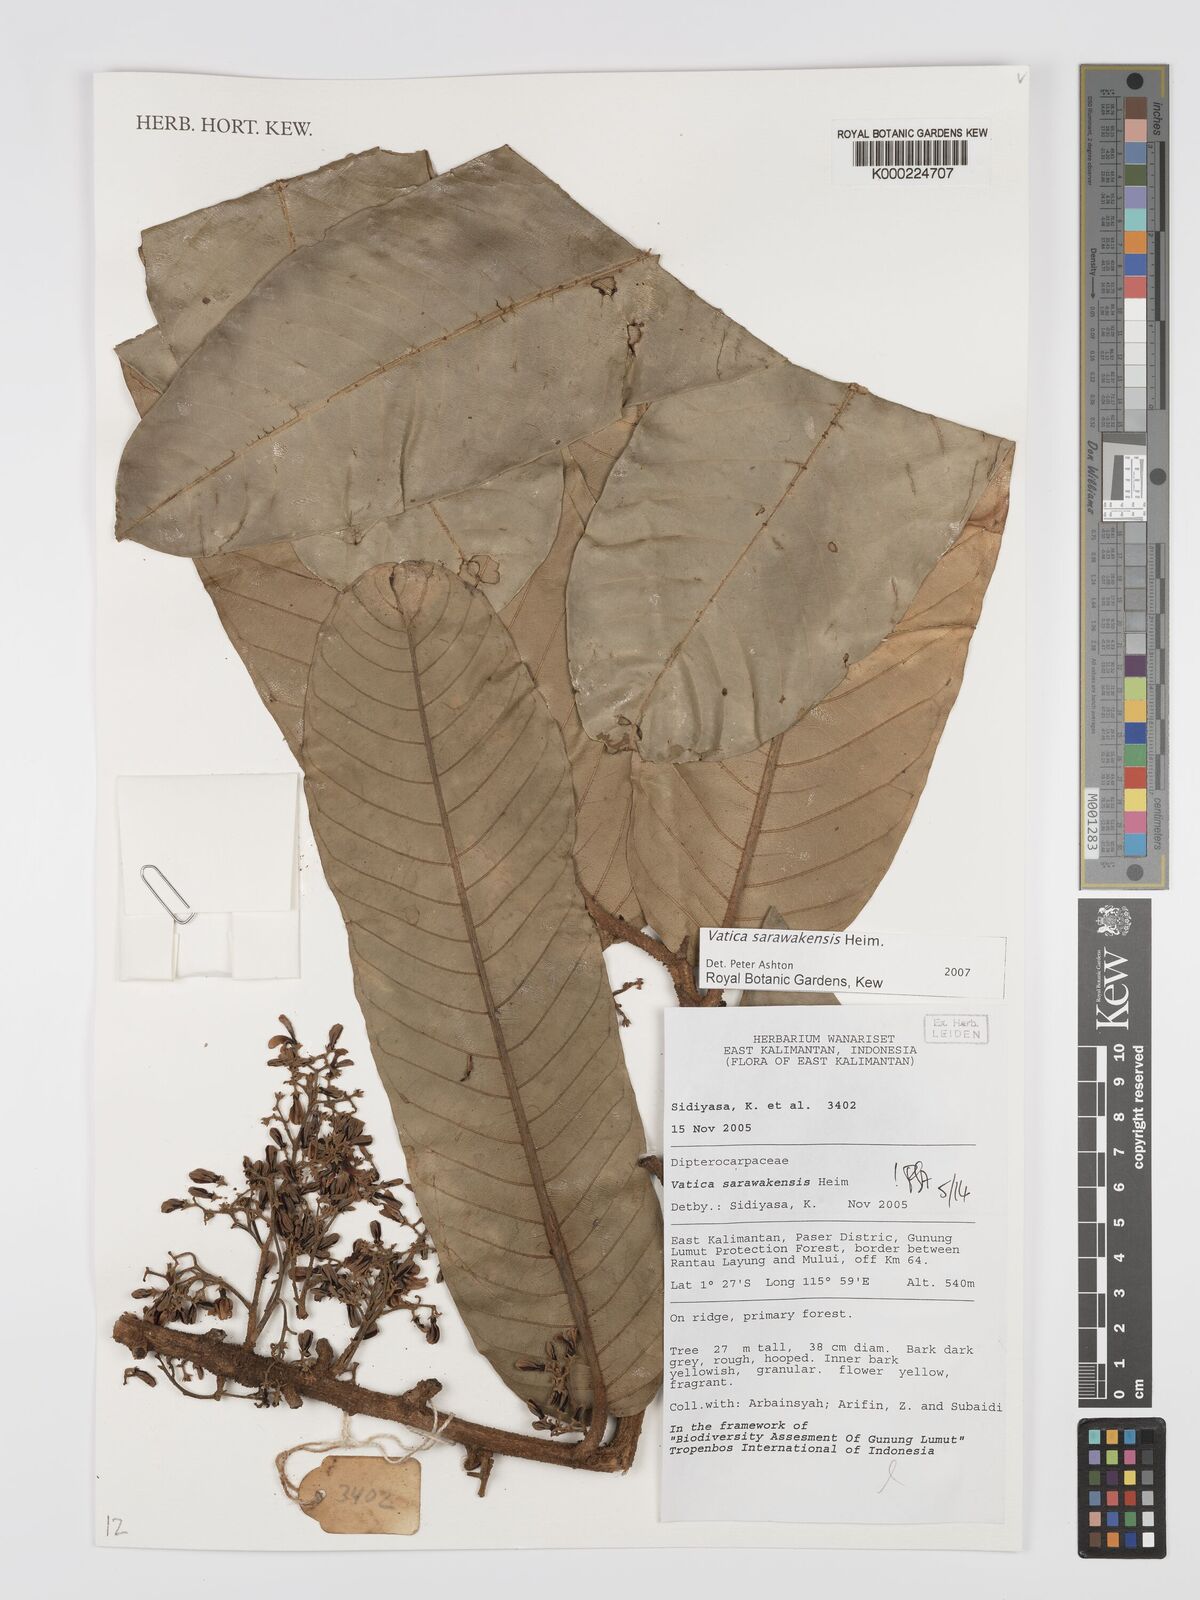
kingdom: Plantae
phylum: Tracheophyta
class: Magnoliopsida
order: Malvales
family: Dipterocarpaceae
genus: Vatica
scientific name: Vatica sarawakensis
